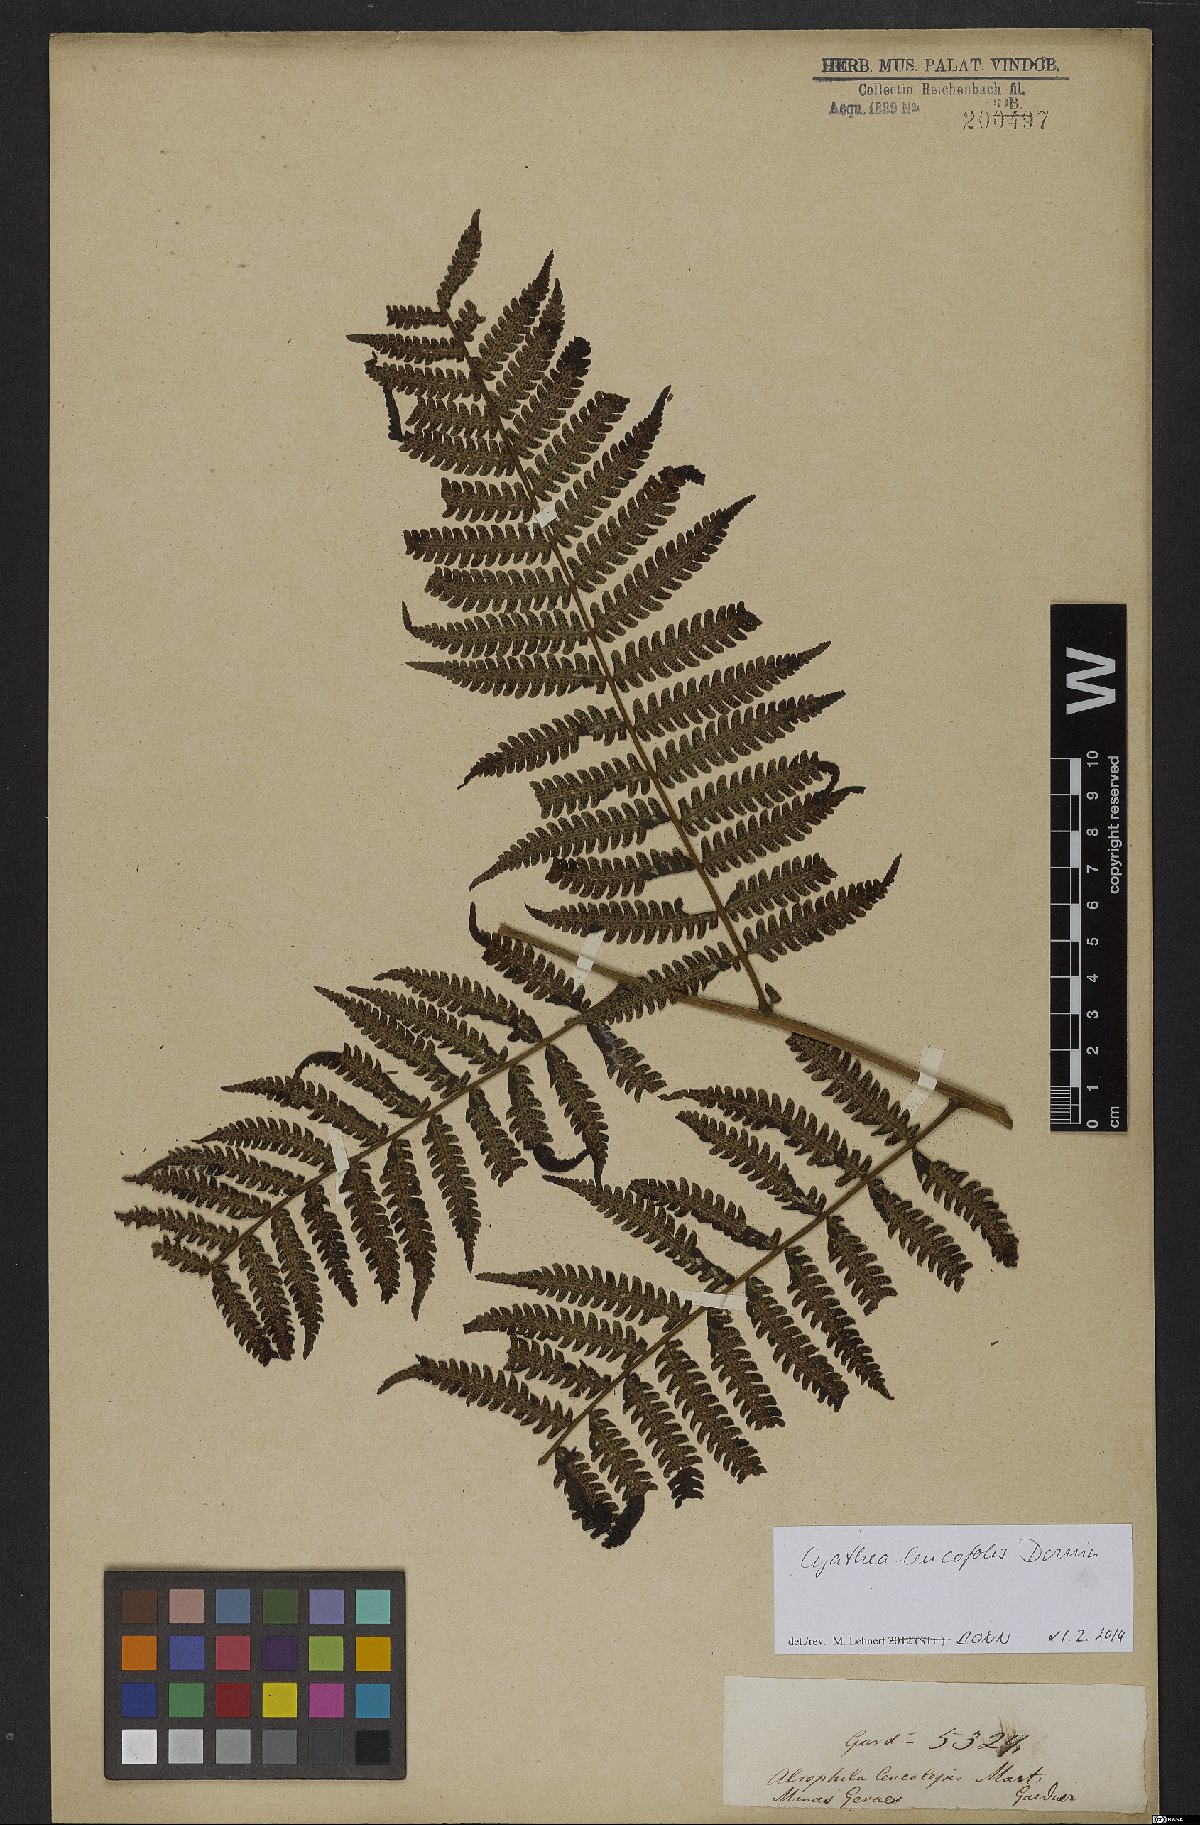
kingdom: Plantae
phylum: Tracheophyta
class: Polypodiopsida
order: Cyatheales
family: Cyatheaceae
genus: Cyathea
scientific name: Cyathea leucofolis
